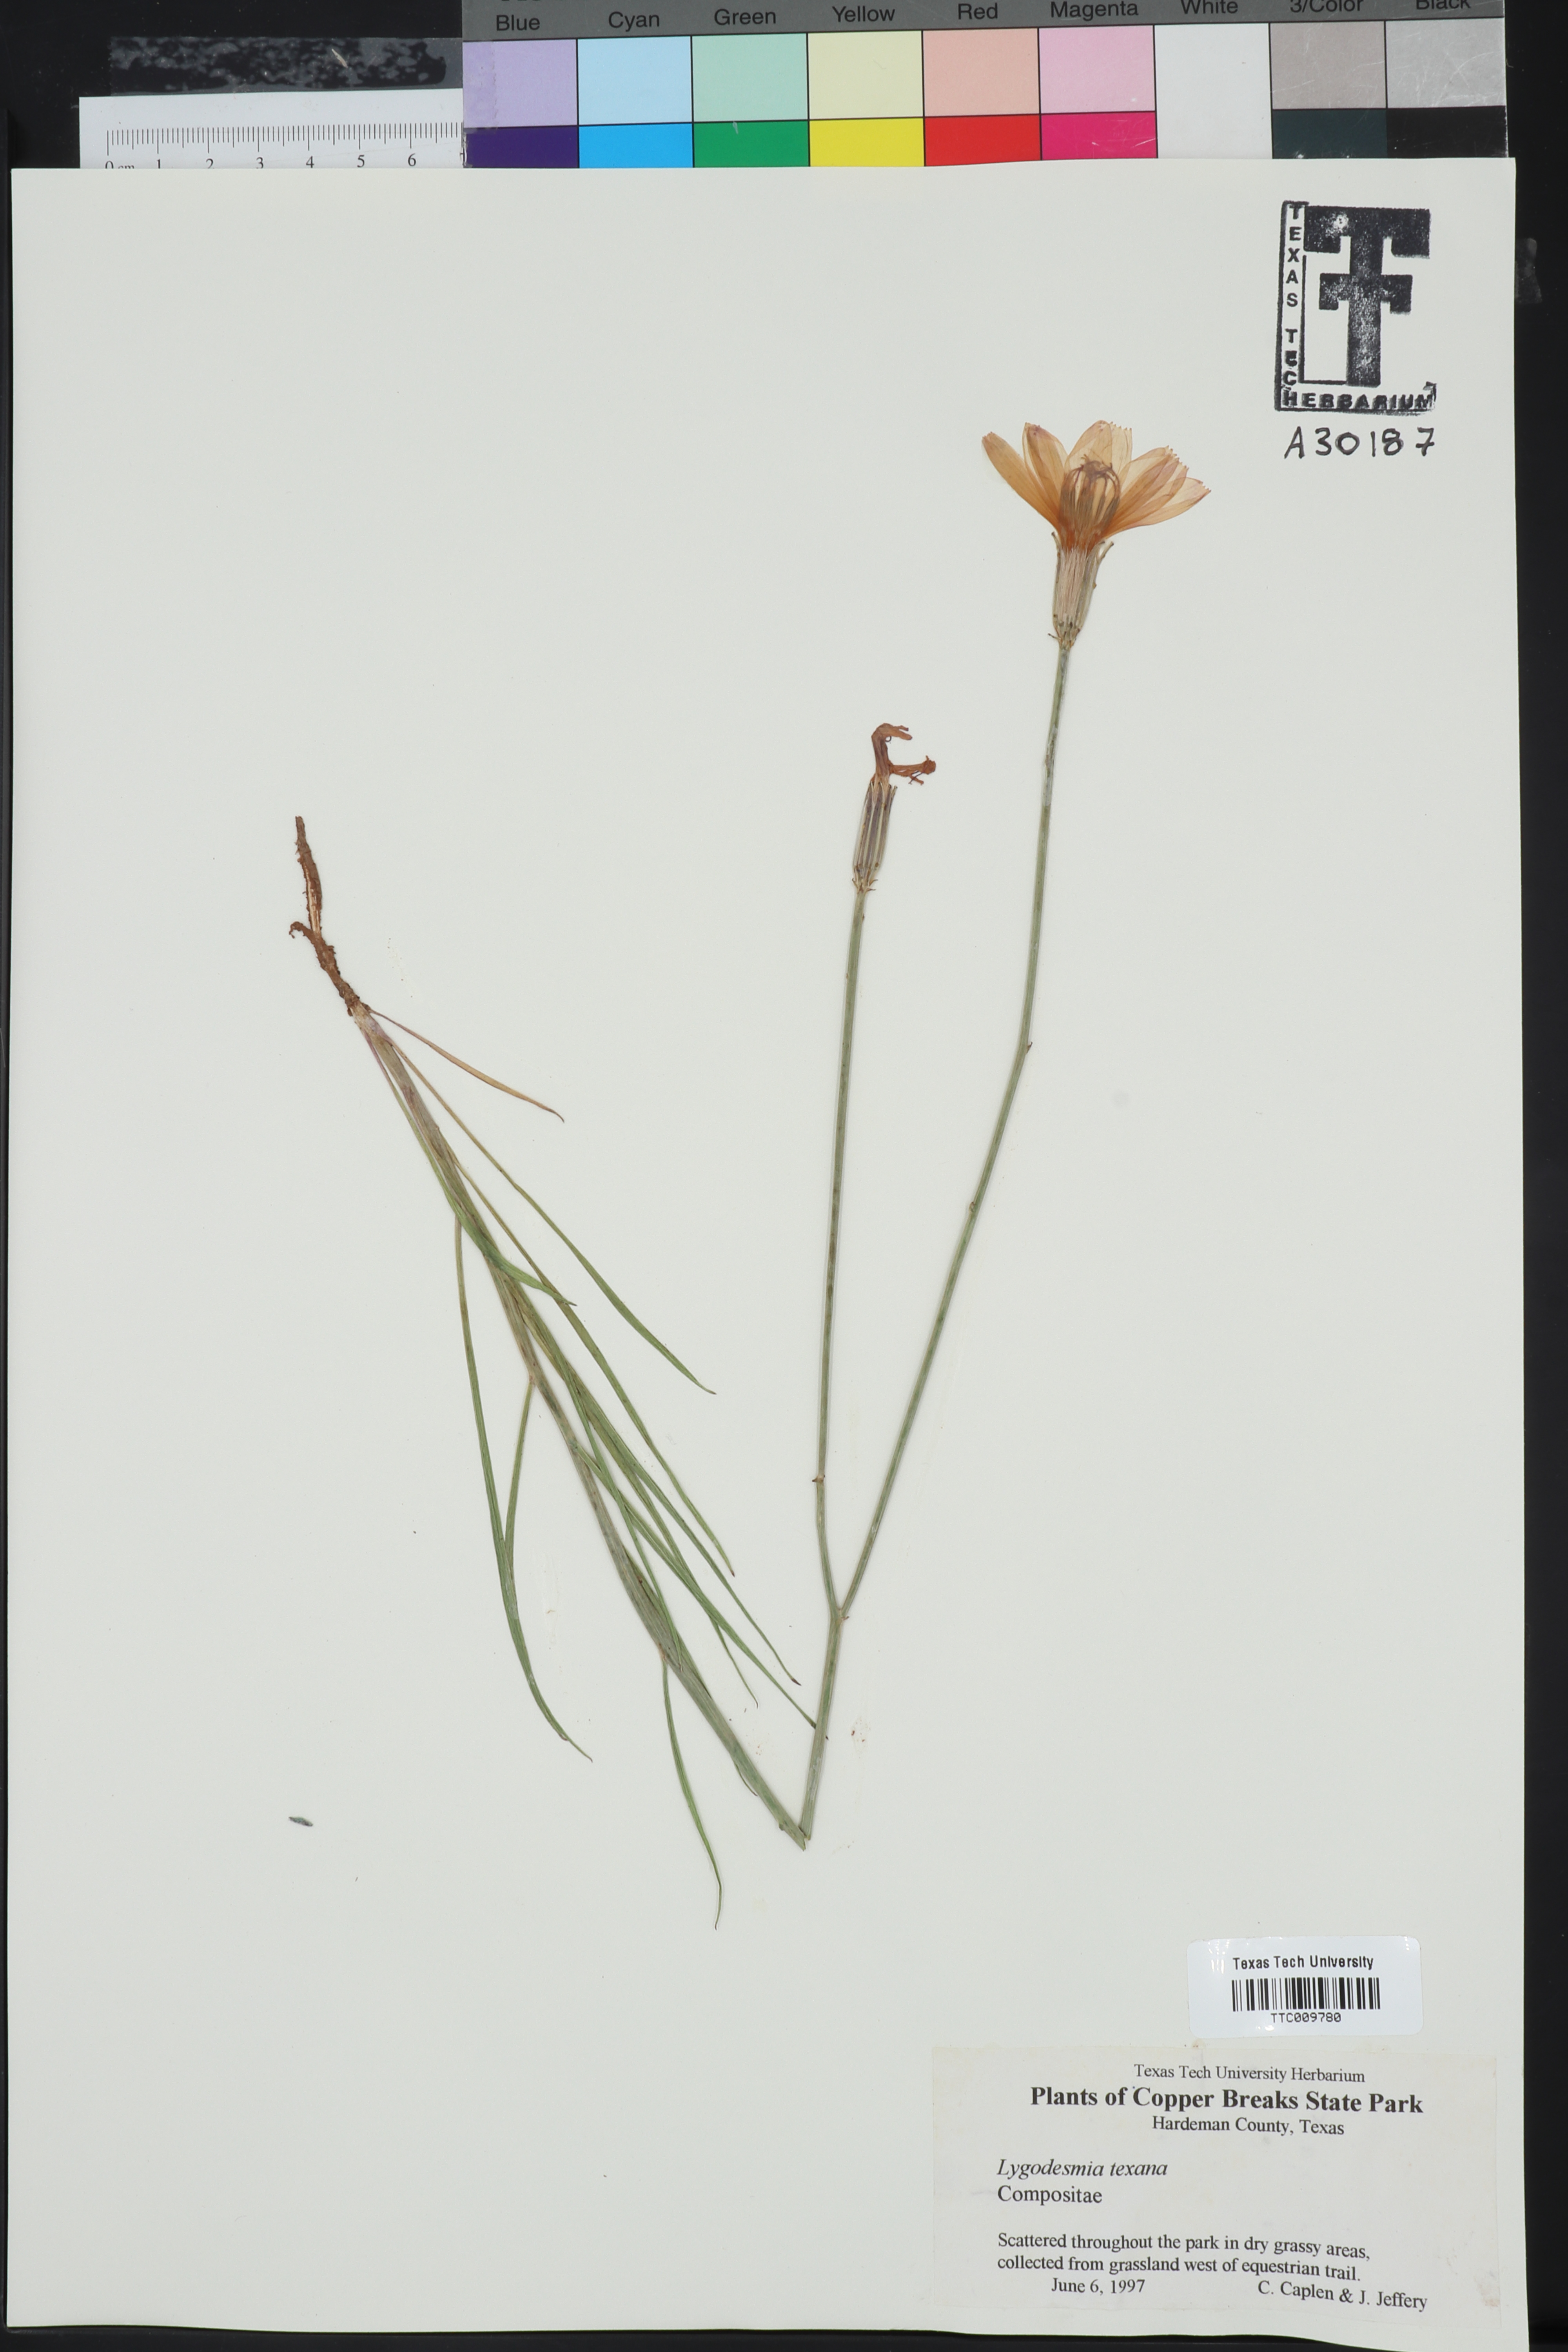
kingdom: Plantae
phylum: Tracheophyta
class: Magnoliopsida
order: Asterales
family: Asteraceae
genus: Lygodesmia
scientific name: Lygodesmia texana
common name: Texas skeleton-plant
